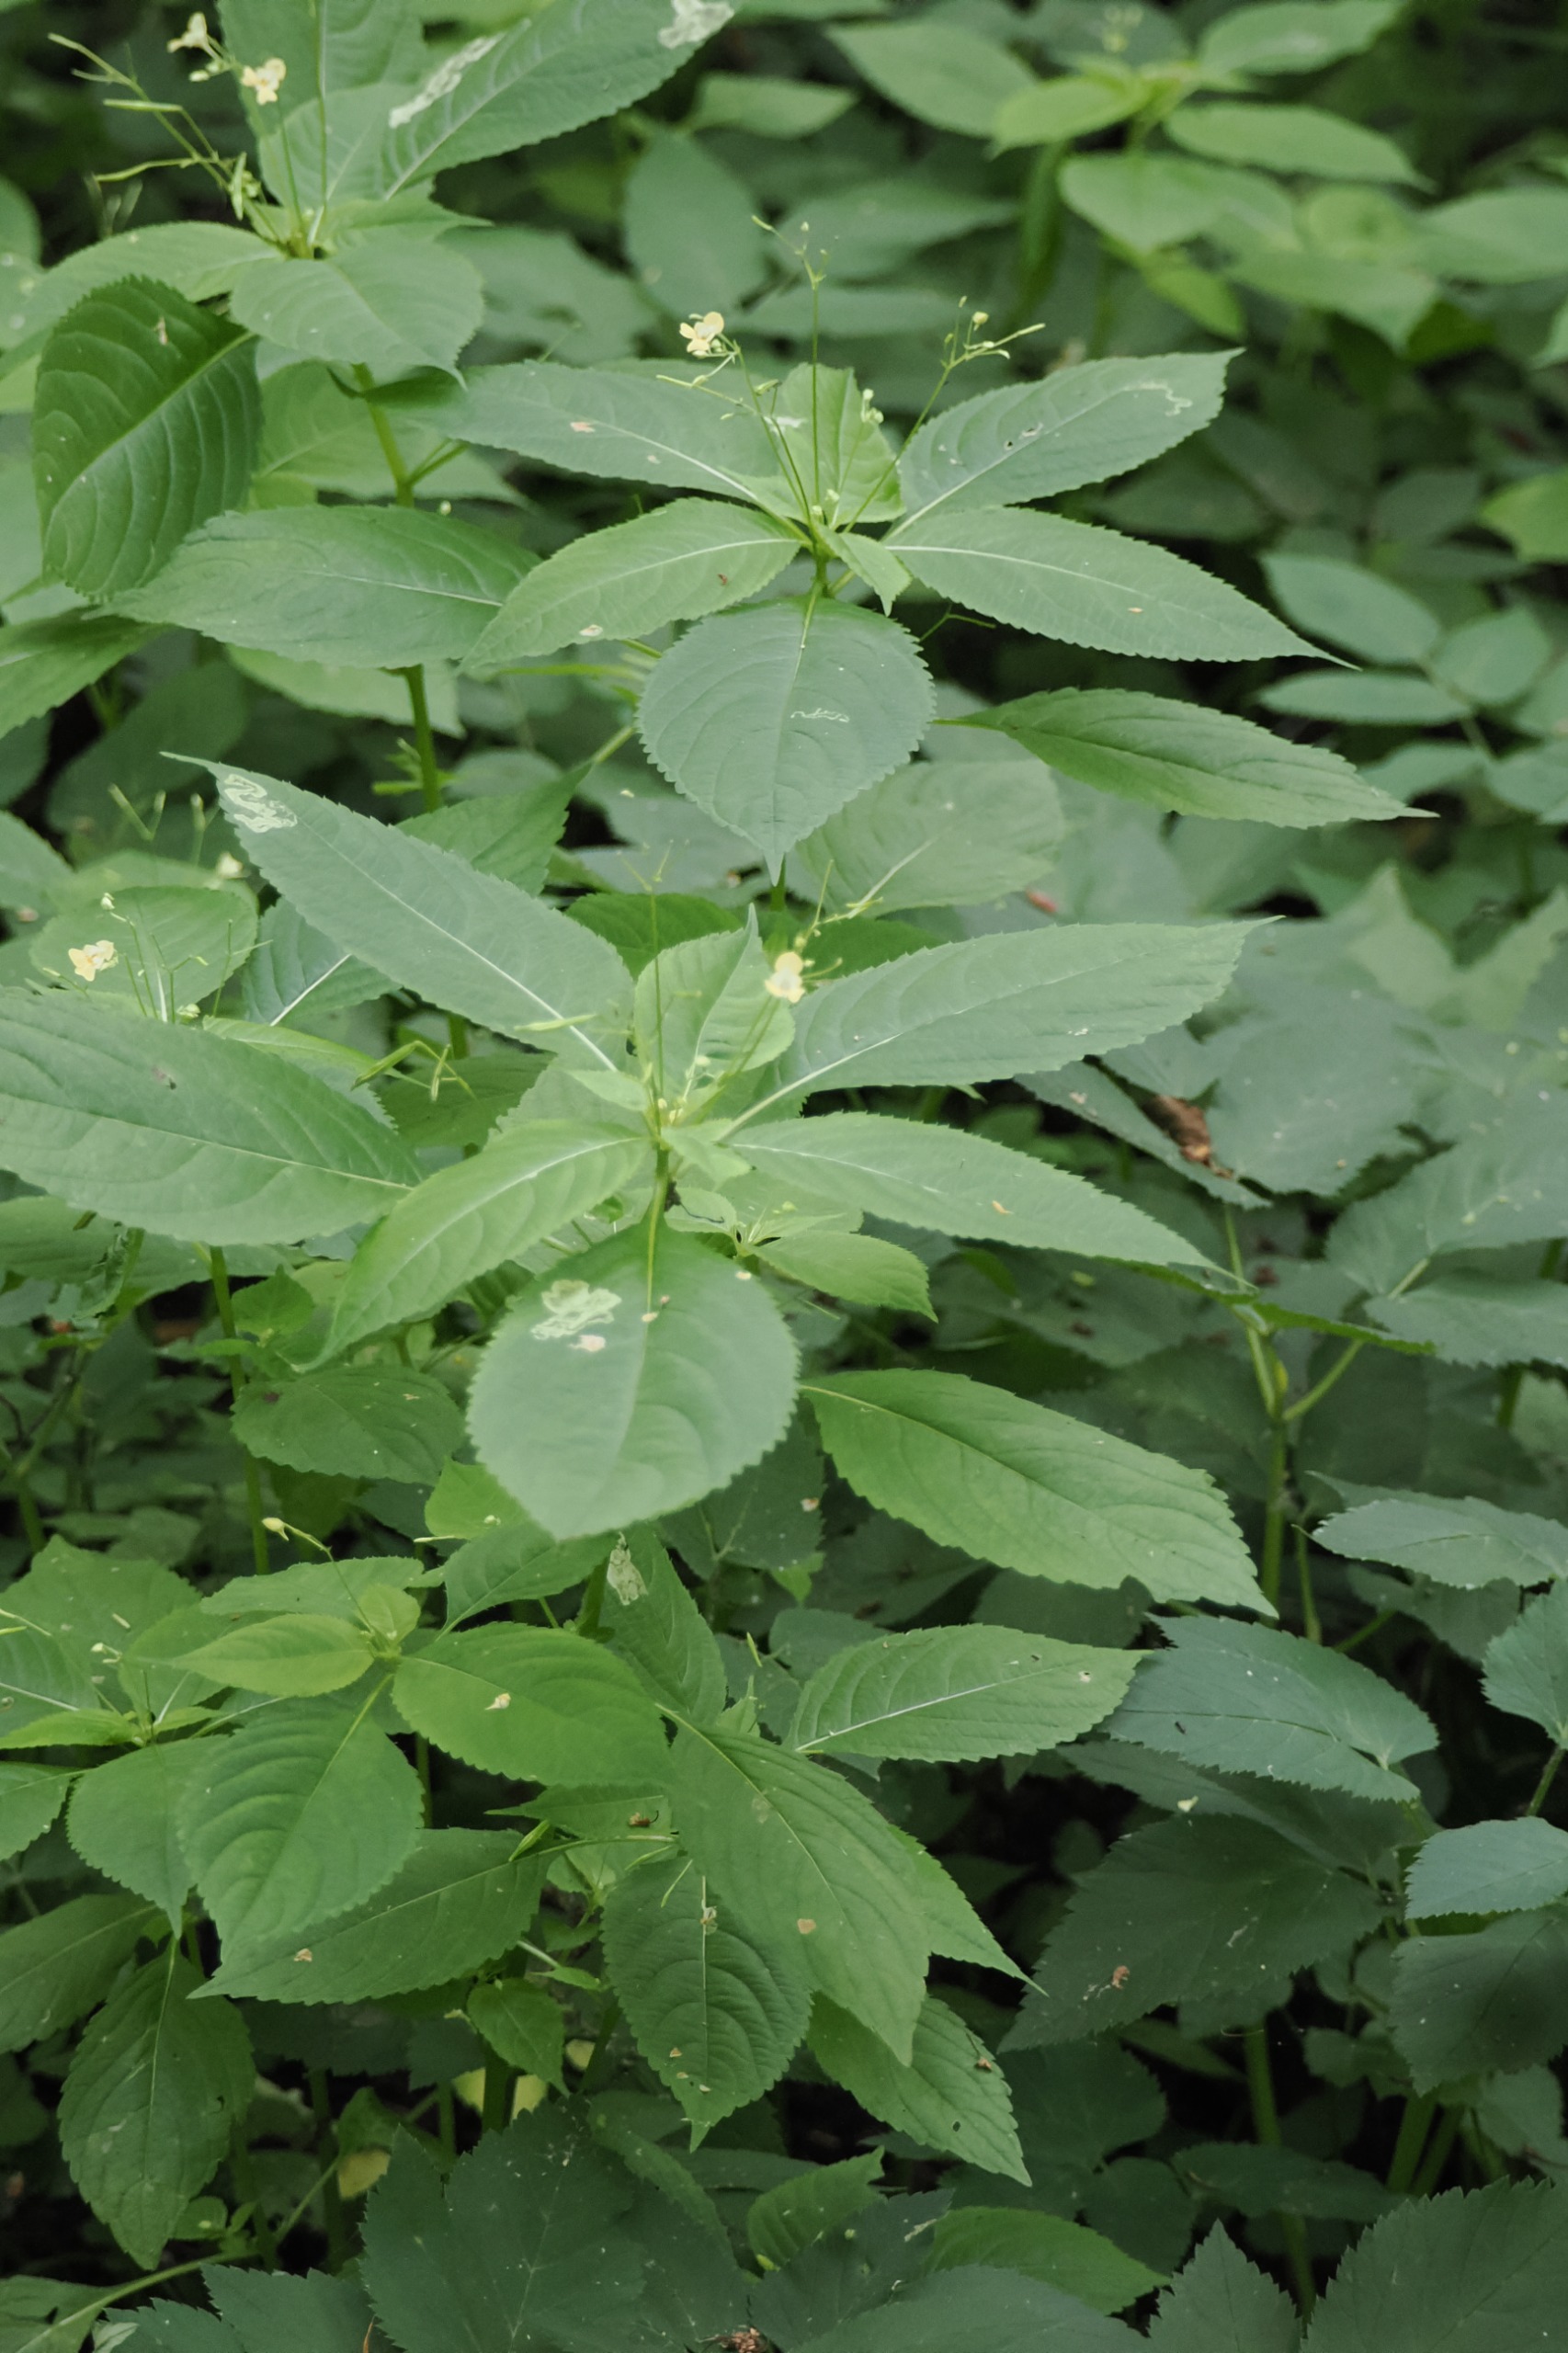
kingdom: Plantae
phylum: Tracheophyta
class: Magnoliopsida
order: Ericales
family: Balsaminaceae
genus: Impatiens
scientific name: Impatiens parviflora
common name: Småblomstret balsamin
